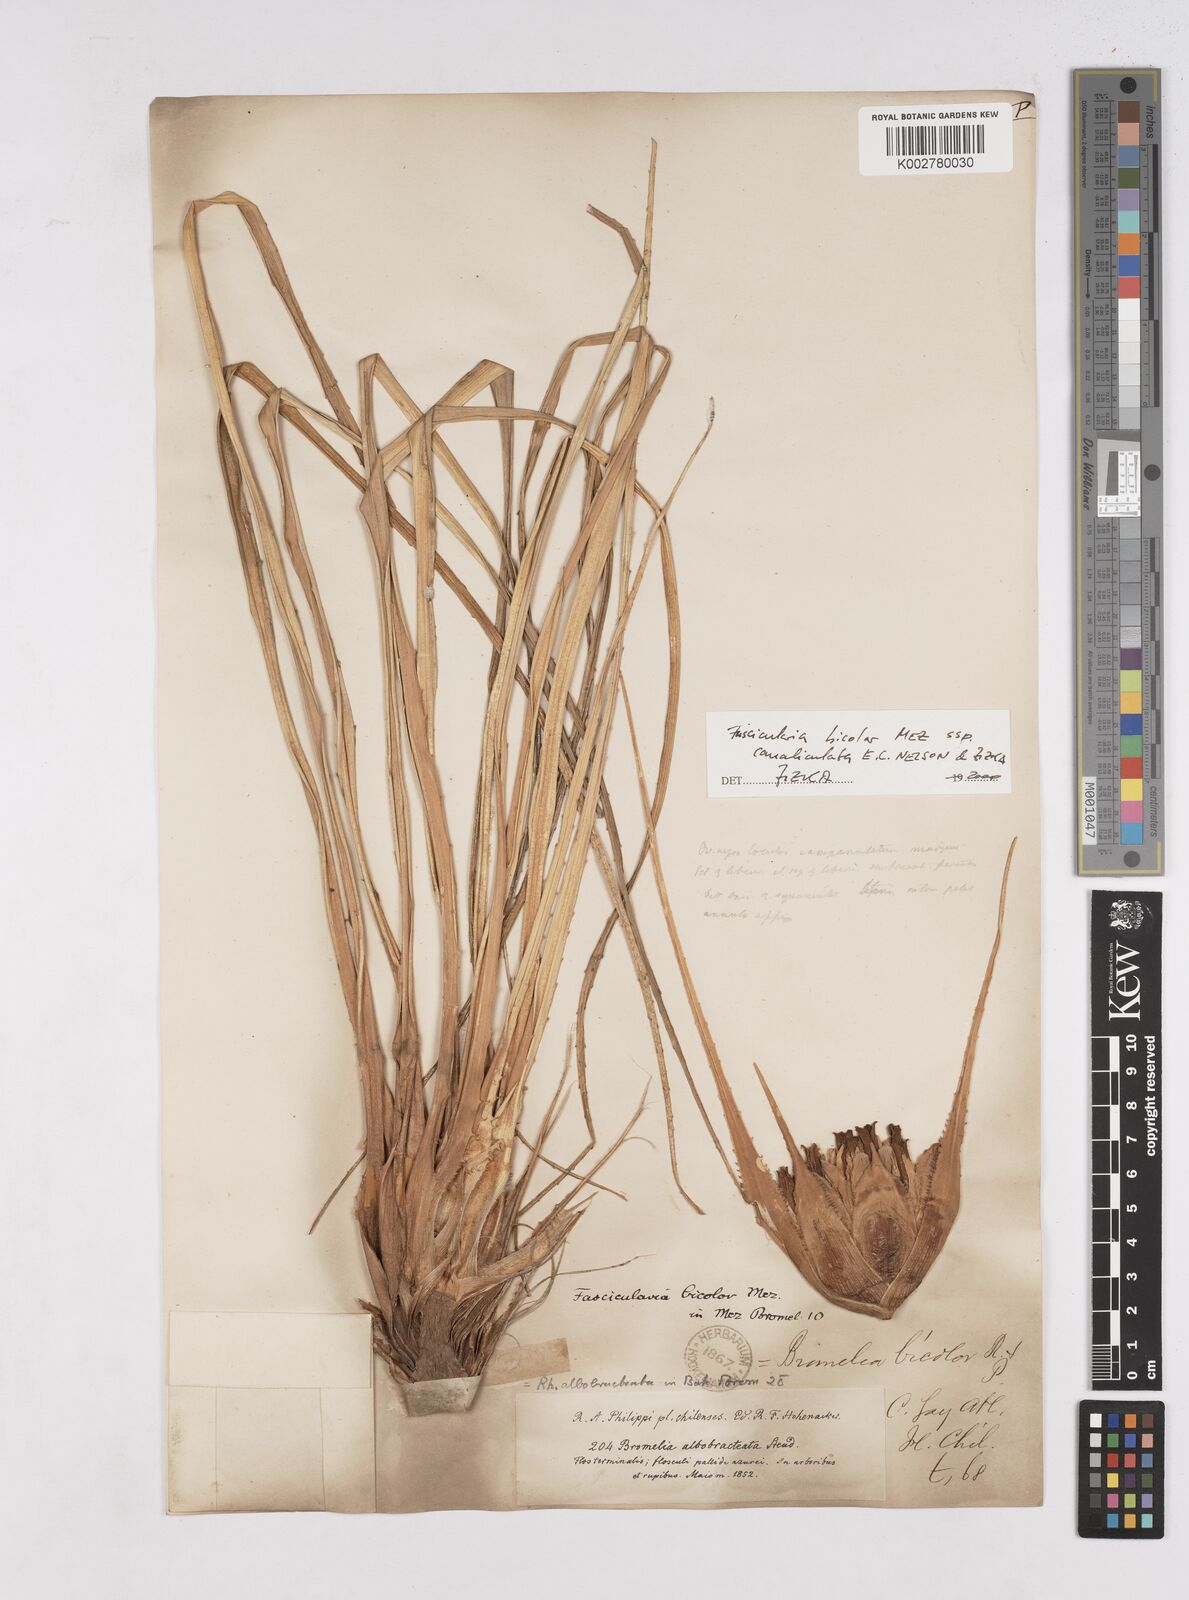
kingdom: Plantae
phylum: Tracheophyta
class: Liliopsida
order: Poales
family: Bromeliaceae
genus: Fascicularia
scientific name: Fascicularia bicolor
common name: Rhodostachys
